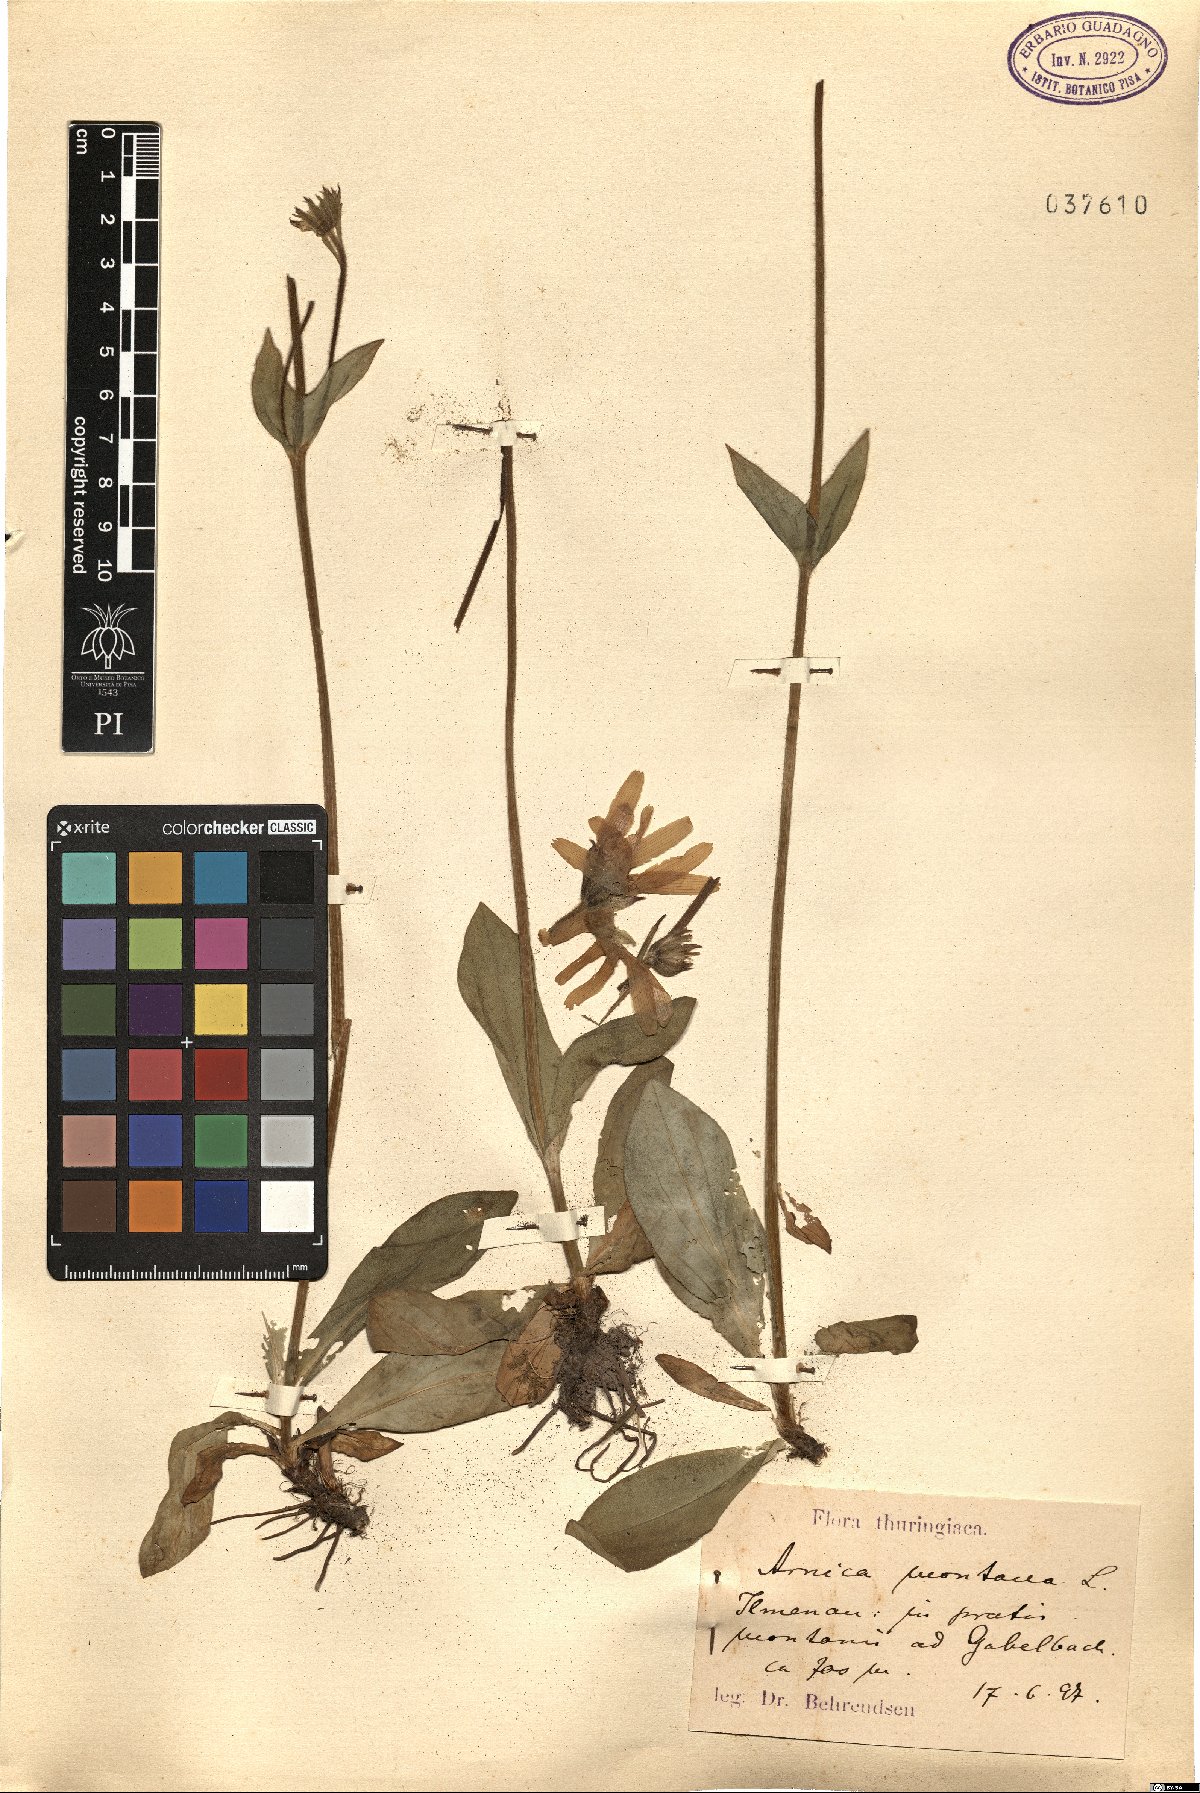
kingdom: Plantae
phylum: Tracheophyta
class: Magnoliopsida
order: Asterales
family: Asteraceae
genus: Arnica
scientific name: Arnica montana
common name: Leopard's bane
